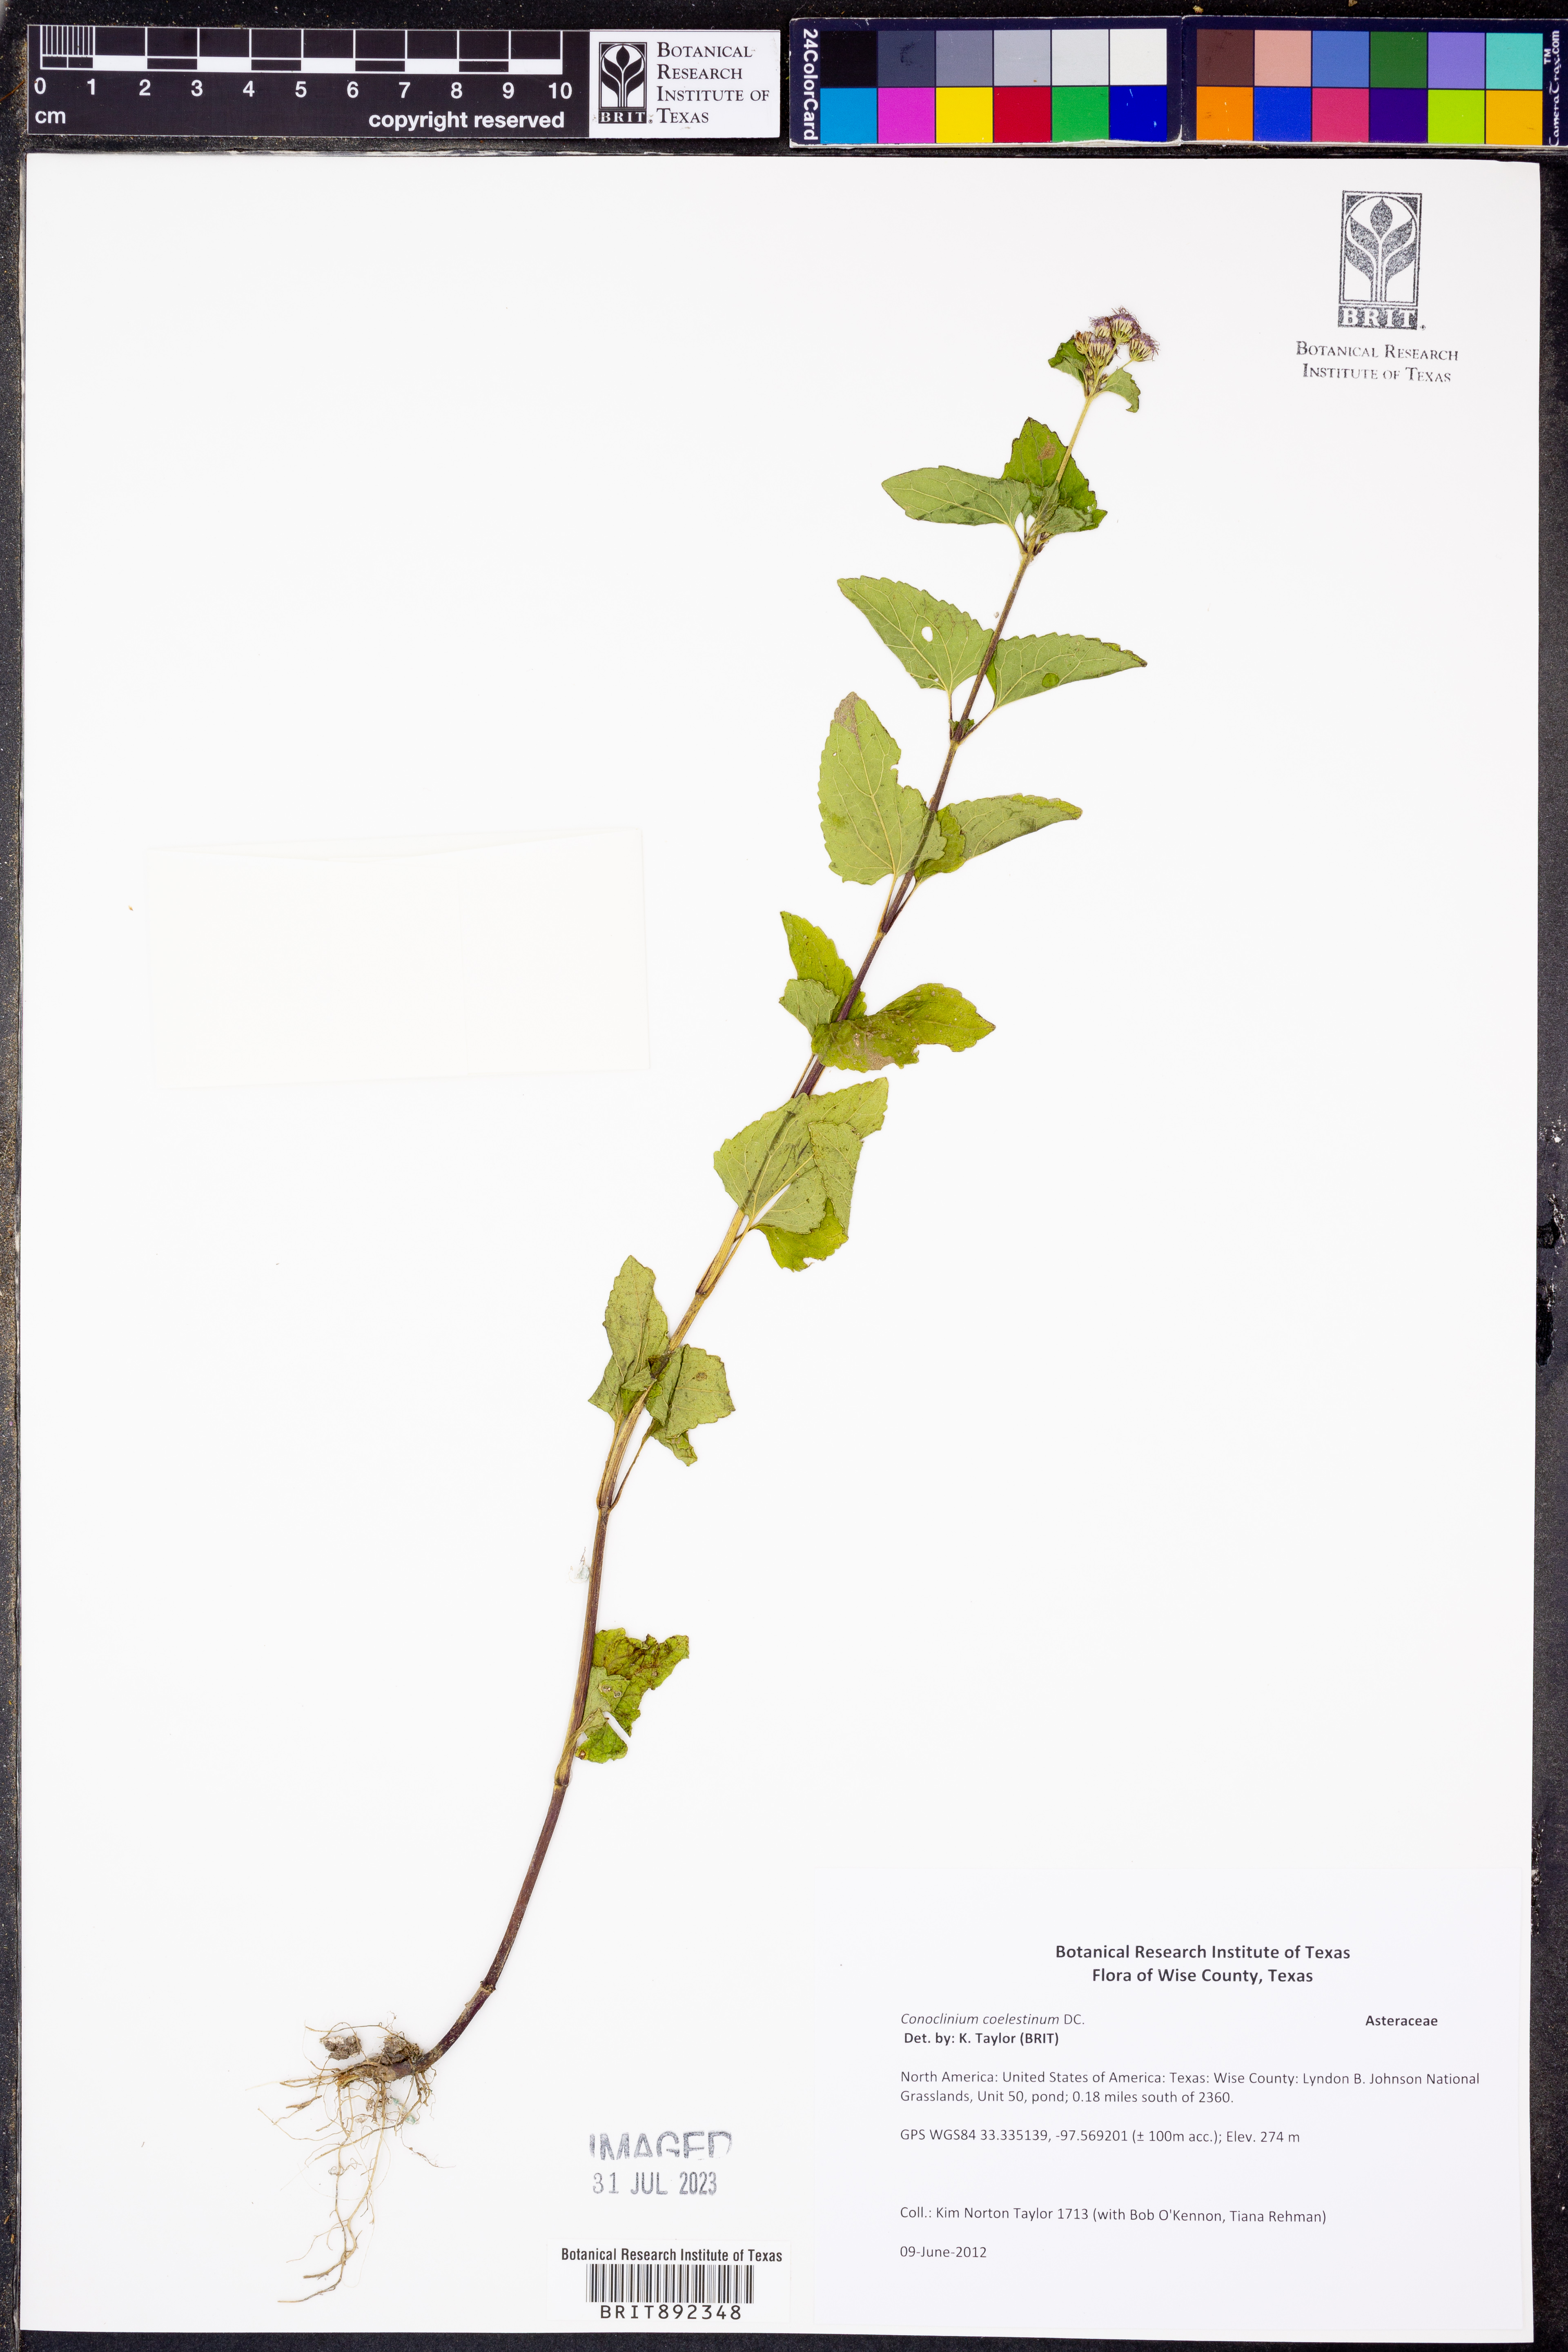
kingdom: Plantae
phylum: Tracheophyta
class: Magnoliopsida
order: Asterales
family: Asteraceae
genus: Conoclinium
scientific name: Conoclinium coelestinum
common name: Blue mistflower
